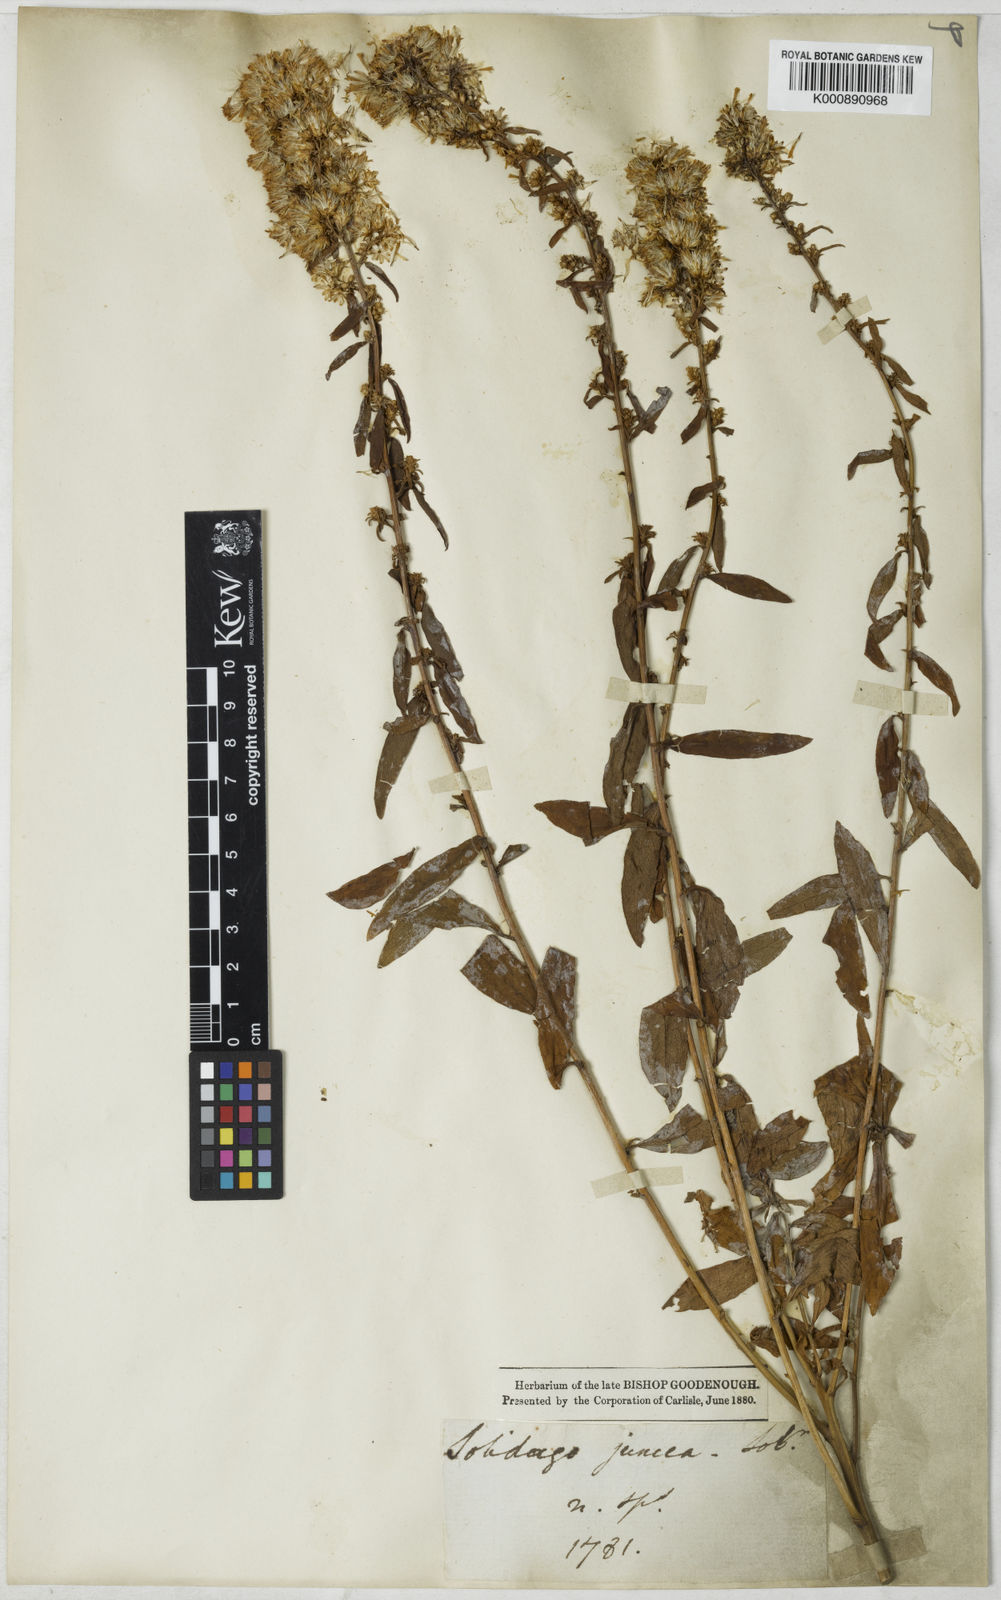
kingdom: Plantae
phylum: Tracheophyta
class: Magnoliopsida
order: Asterales
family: Asteraceae
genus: Solidago
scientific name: Solidago
